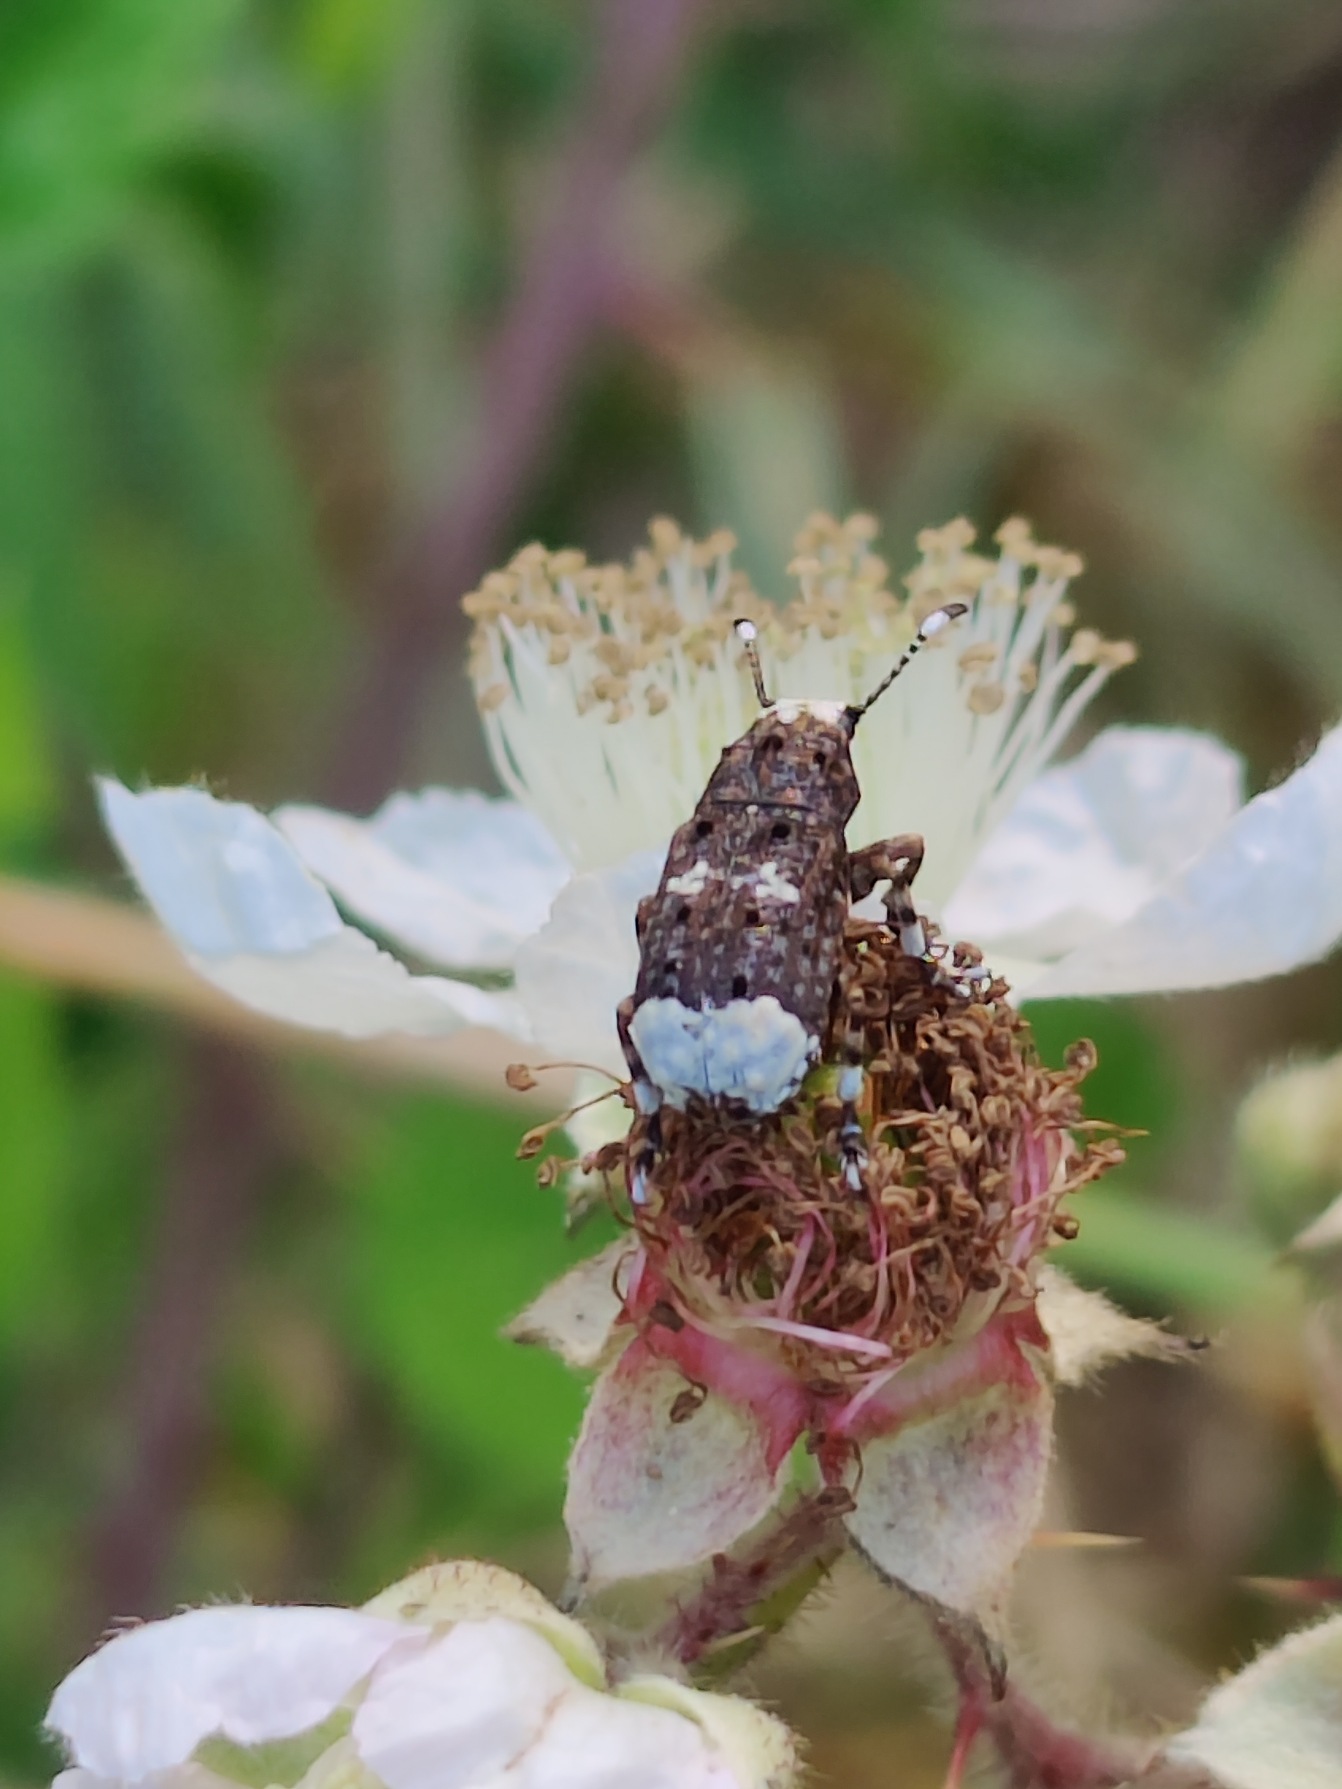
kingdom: Animalia
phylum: Arthropoda
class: Insecta
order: Coleoptera
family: Anthribidae
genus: Platystomos
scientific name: Platystomos albinus
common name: Hvidhovedet bredsnudebille
